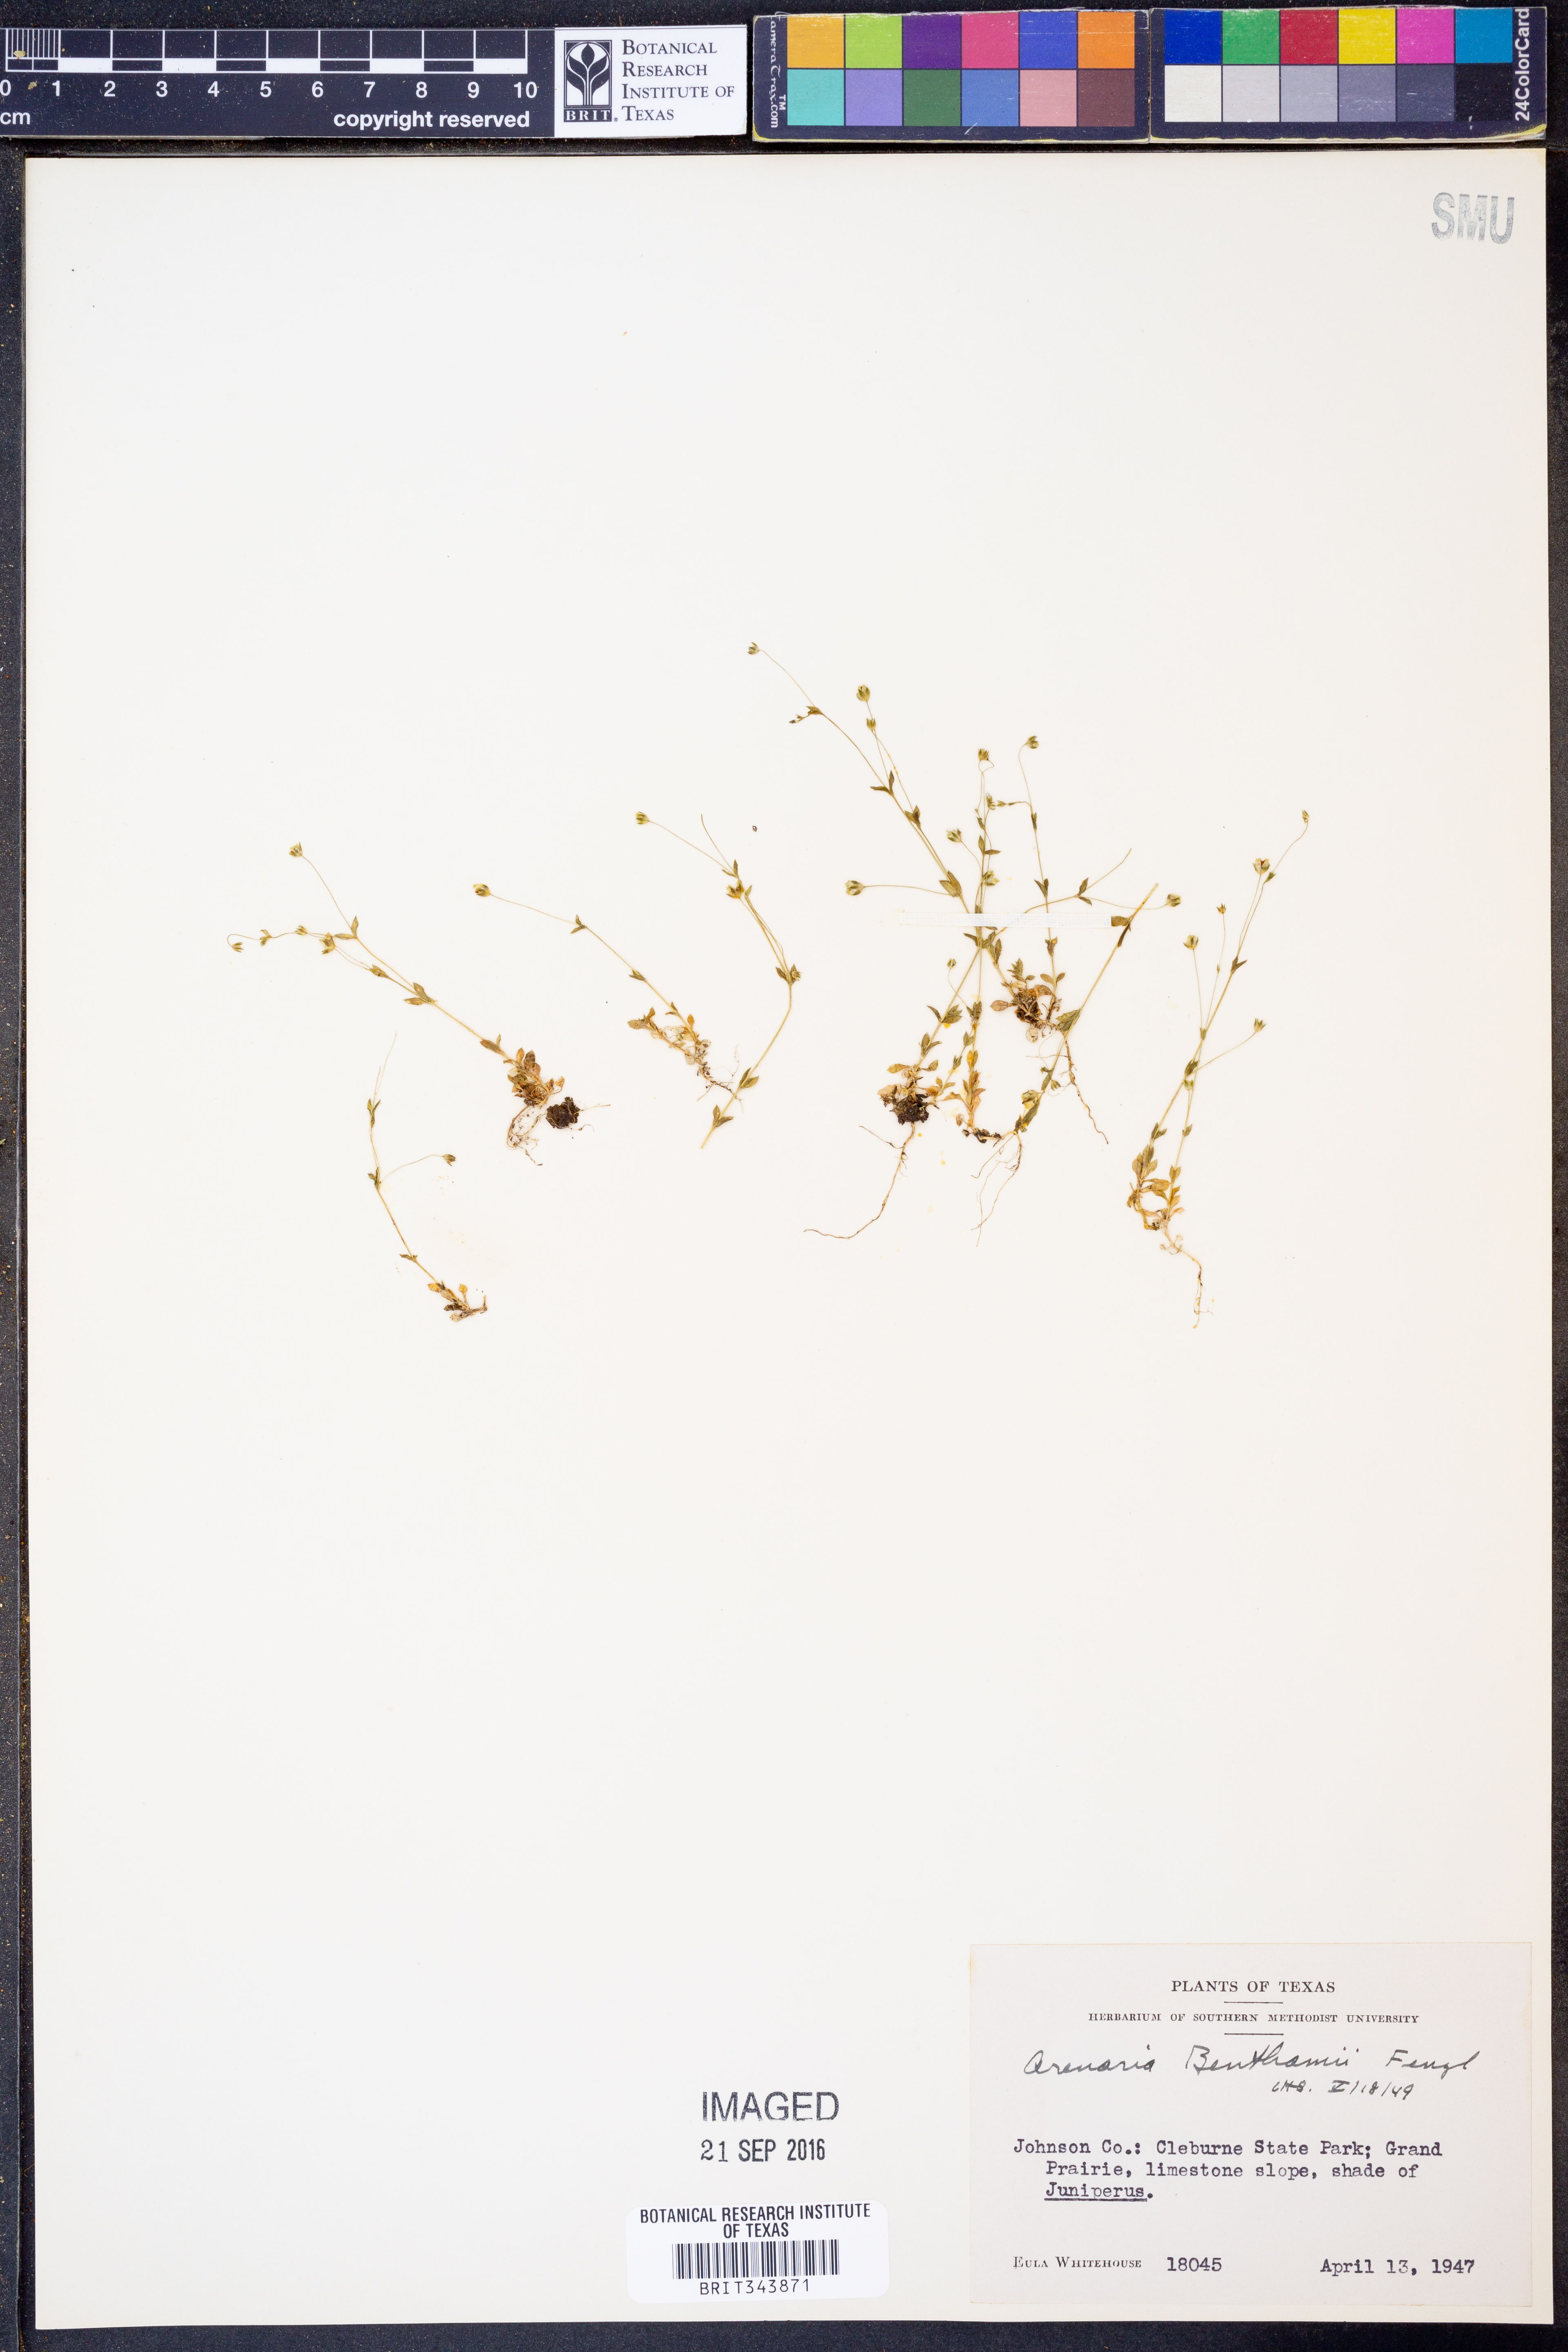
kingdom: Plantae
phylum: Tracheophyta
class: Magnoliopsida
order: Caryophyllales
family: Caryophyllaceae
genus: Arenaria
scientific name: Arenaria benthamii
